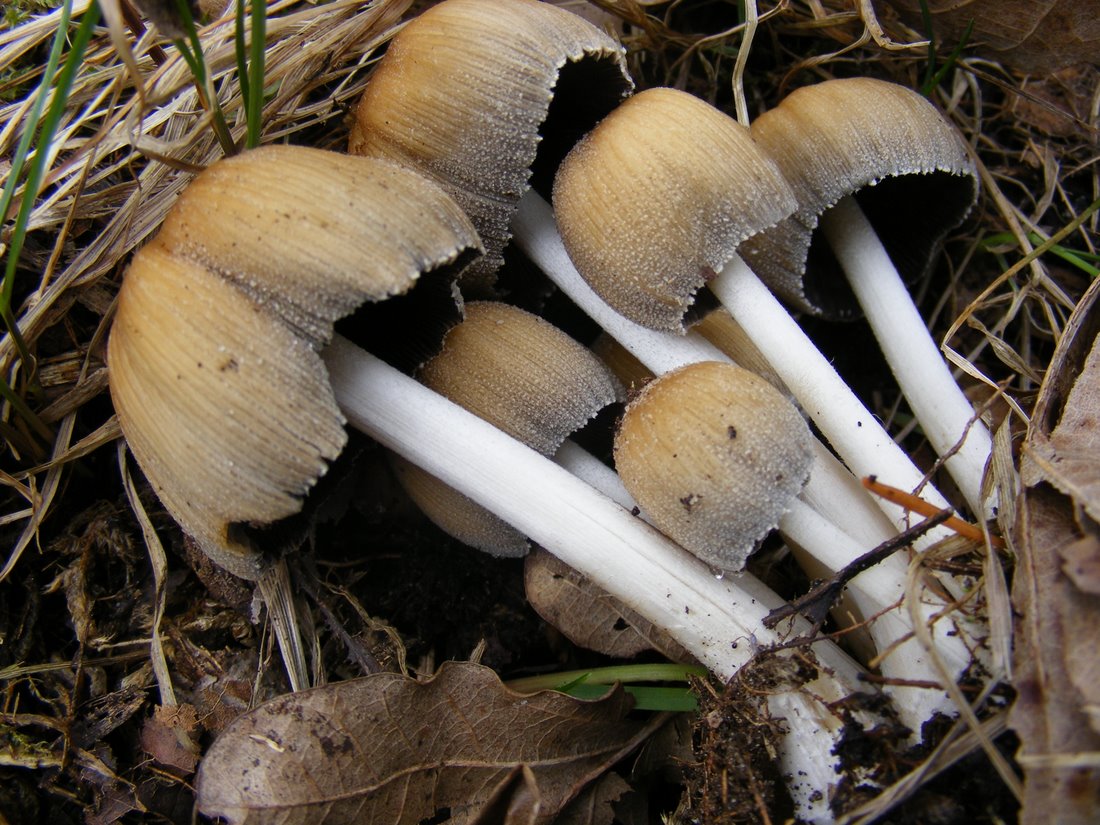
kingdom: Fungi
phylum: Basidiomycota
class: Agaricomycetes
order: Agaricales
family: Psathyrellaceae
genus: Coprinellus
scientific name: Coprinellus micaceus
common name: glimmer-blækhat
